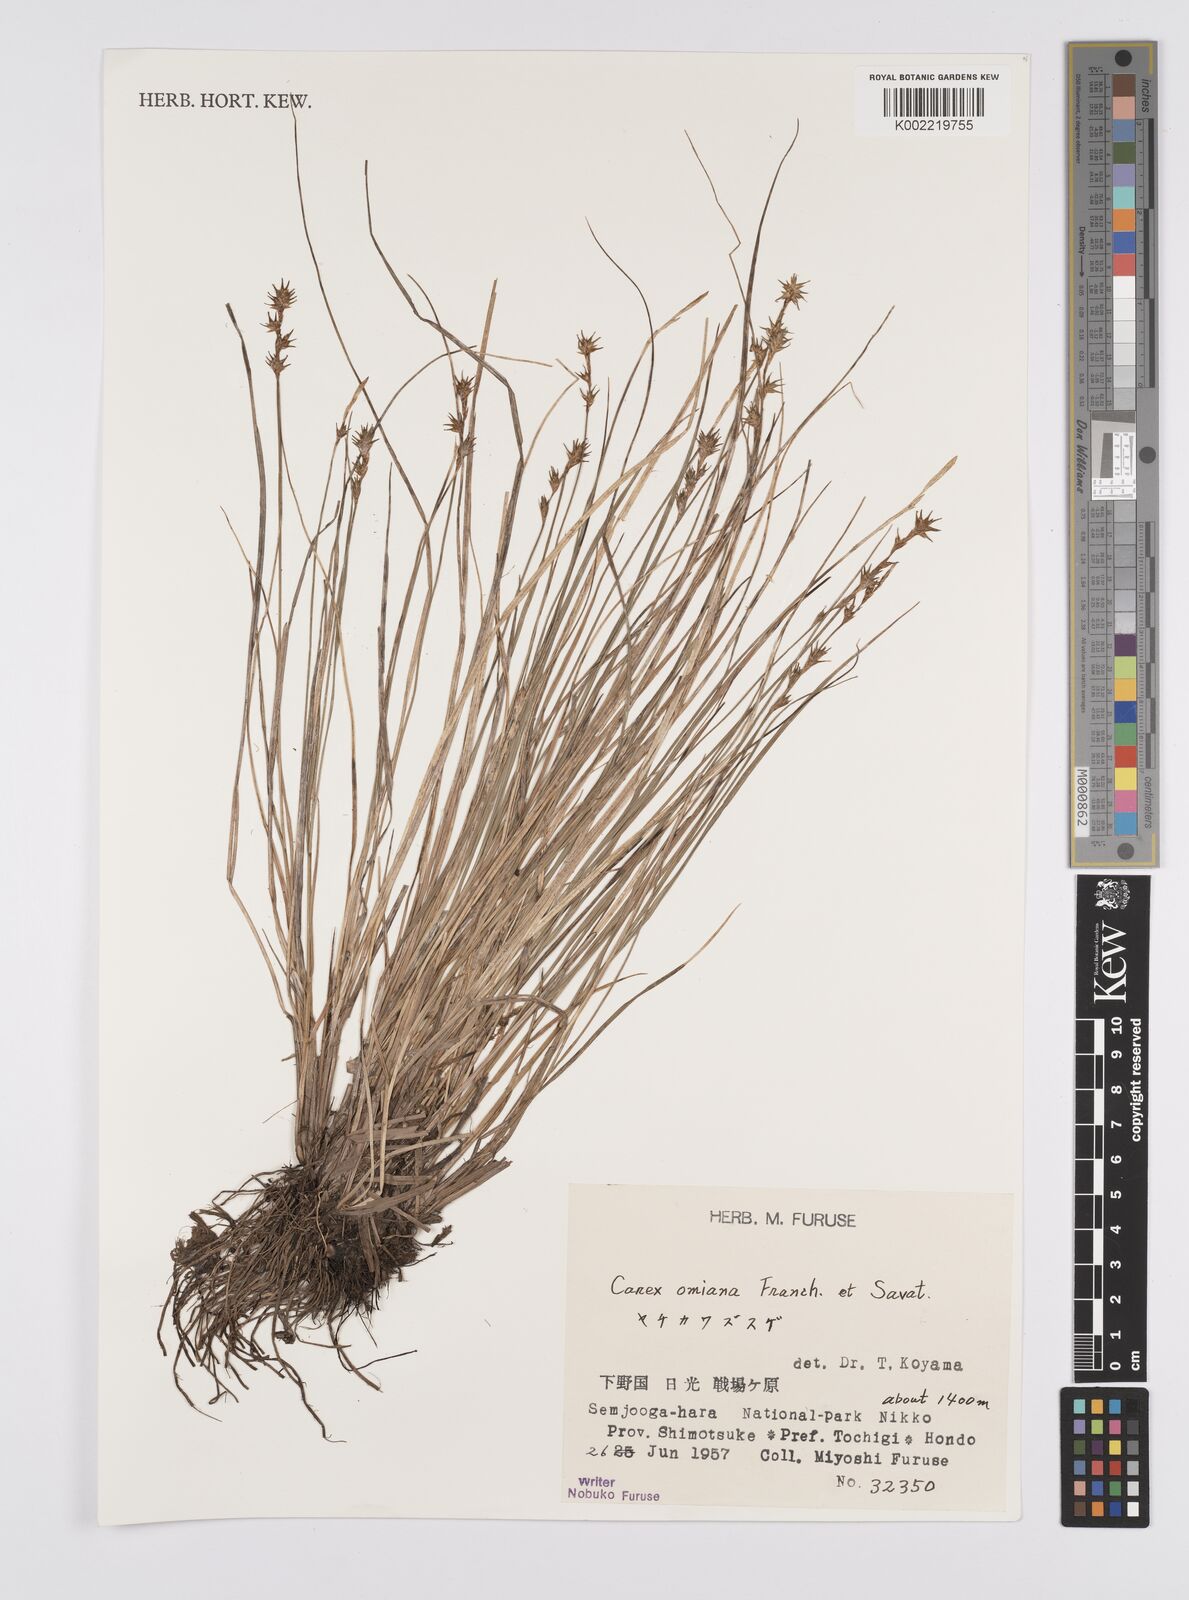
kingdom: Plantae
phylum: Tracheophyta
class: Liliopsida
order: Poales
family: Cyperaceae
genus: Carex
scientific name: Carex echinata
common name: Star sedge
